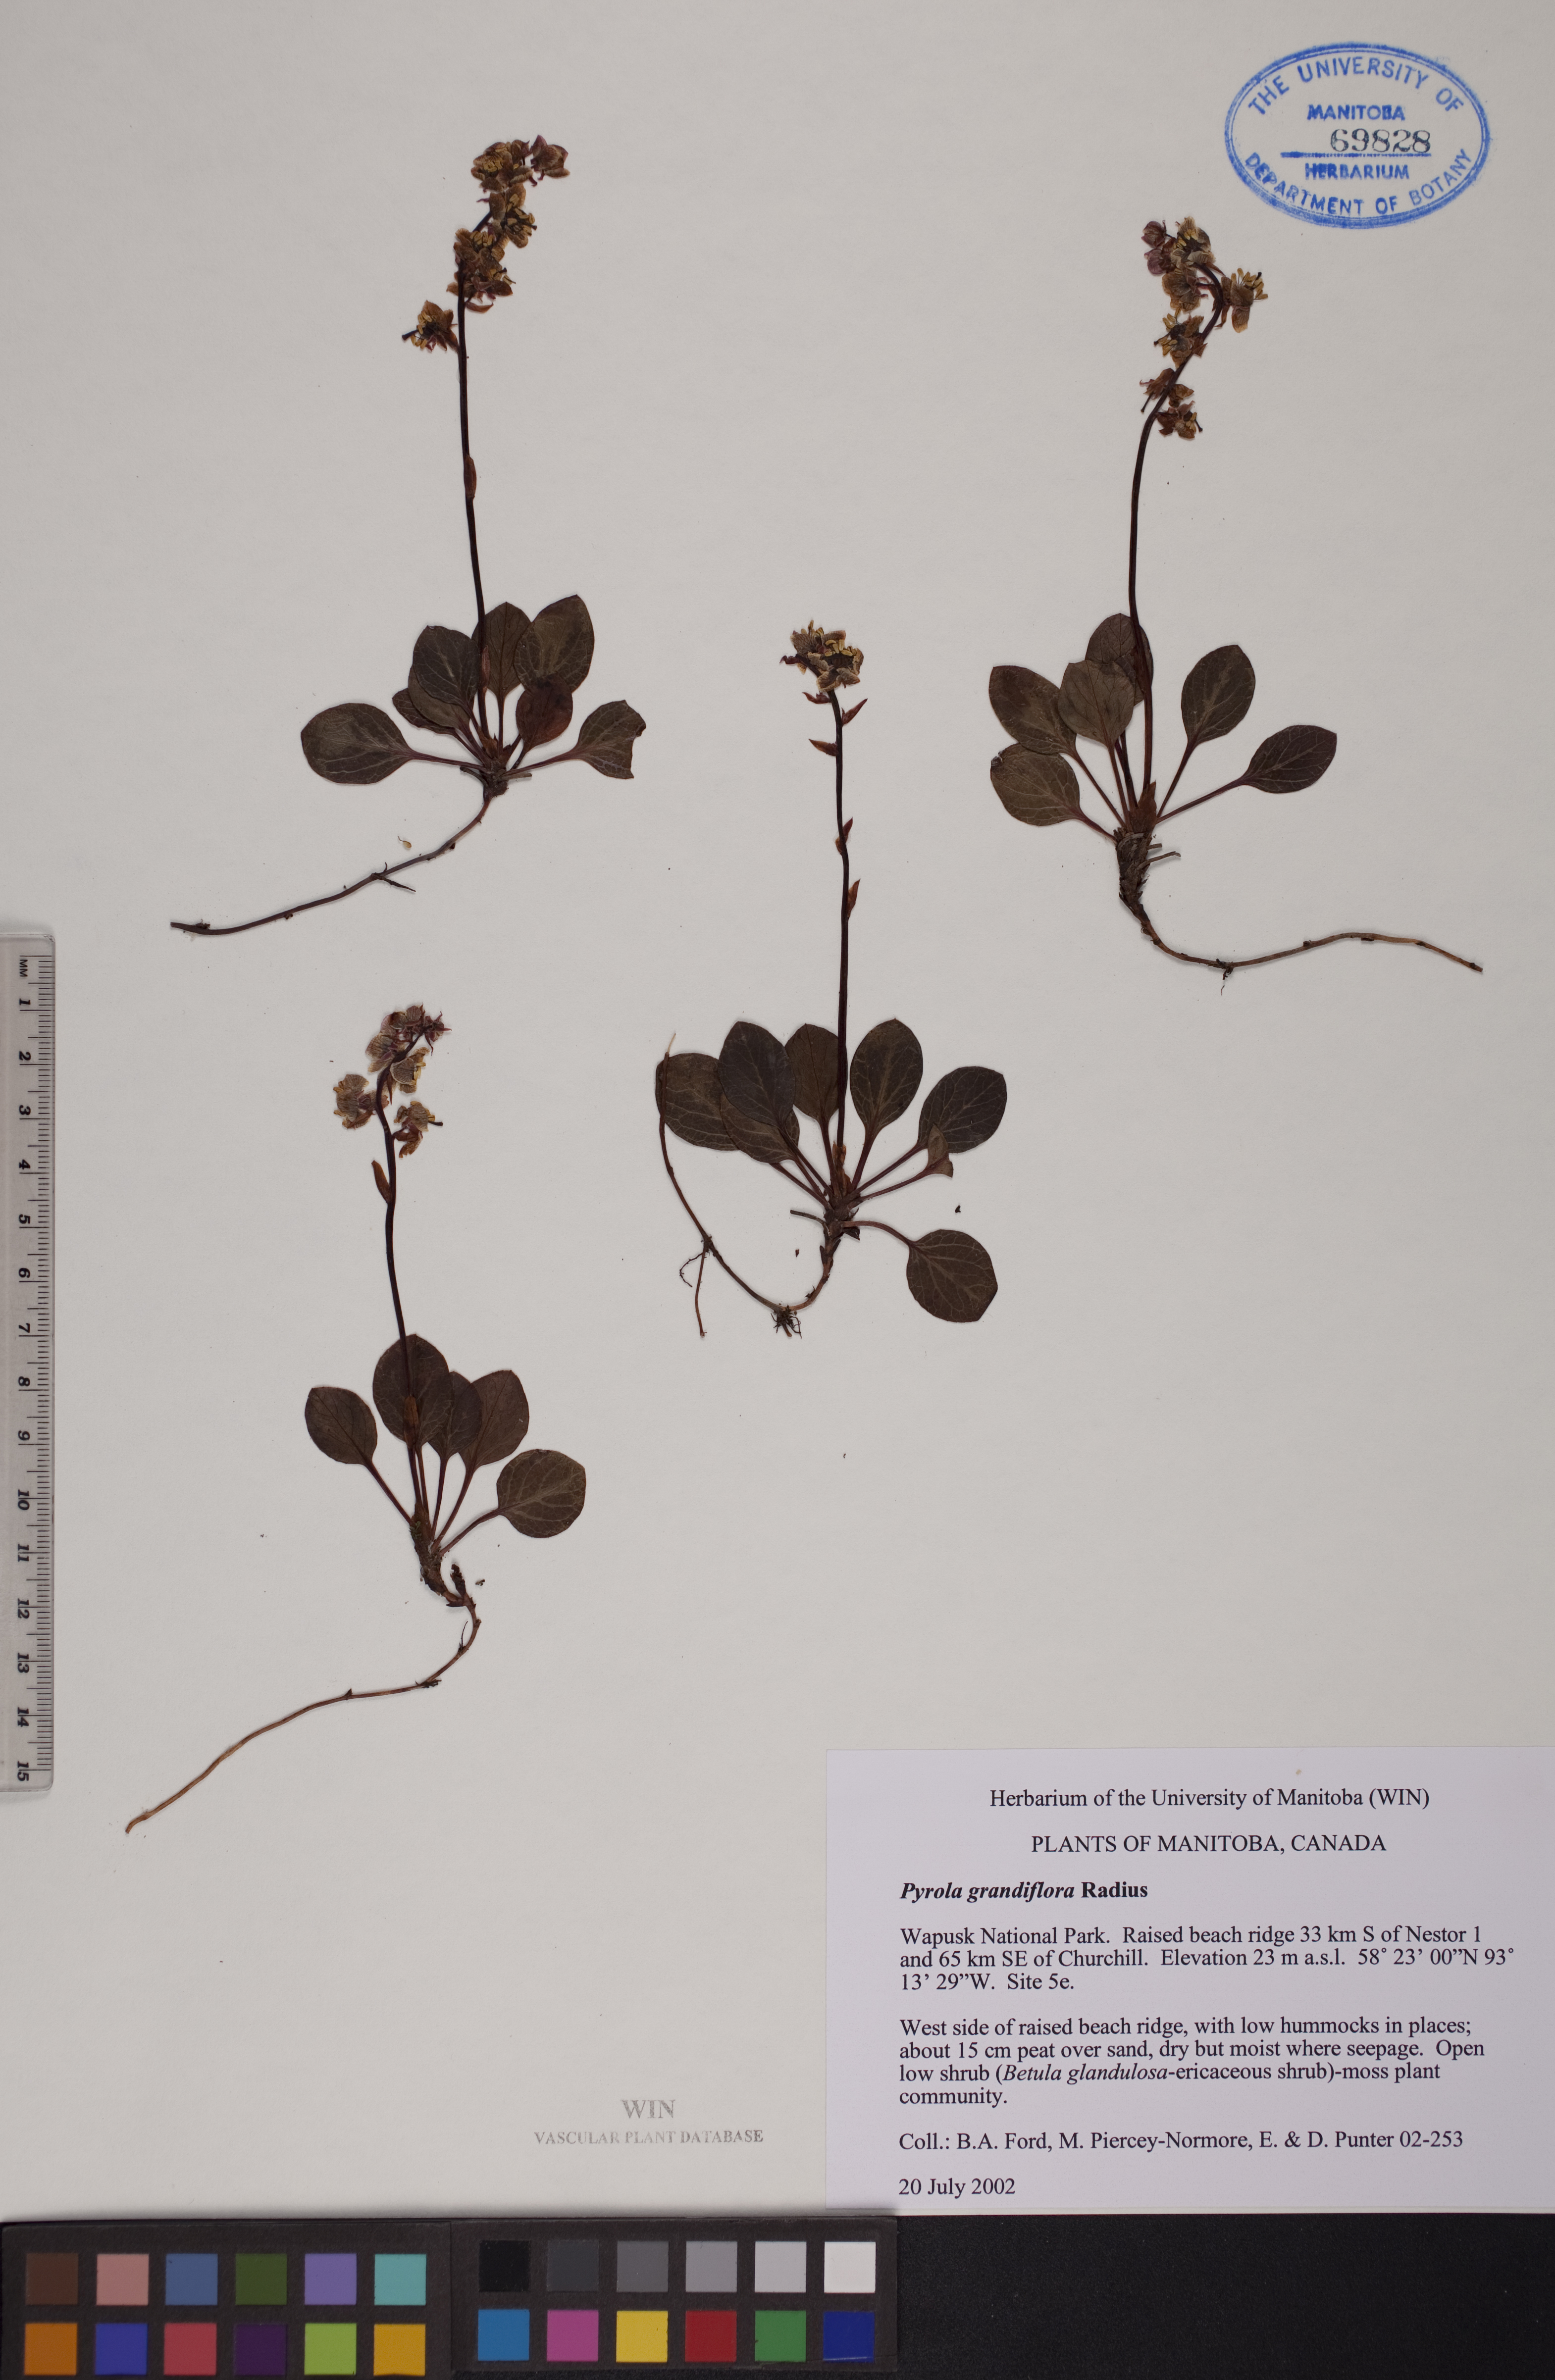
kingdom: Plantae
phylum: Tracheophyta
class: Magnoliopsida
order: Ericales
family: Ericaceae
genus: Pyrola
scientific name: Pyrola grandiflora
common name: Arctic pyrola
